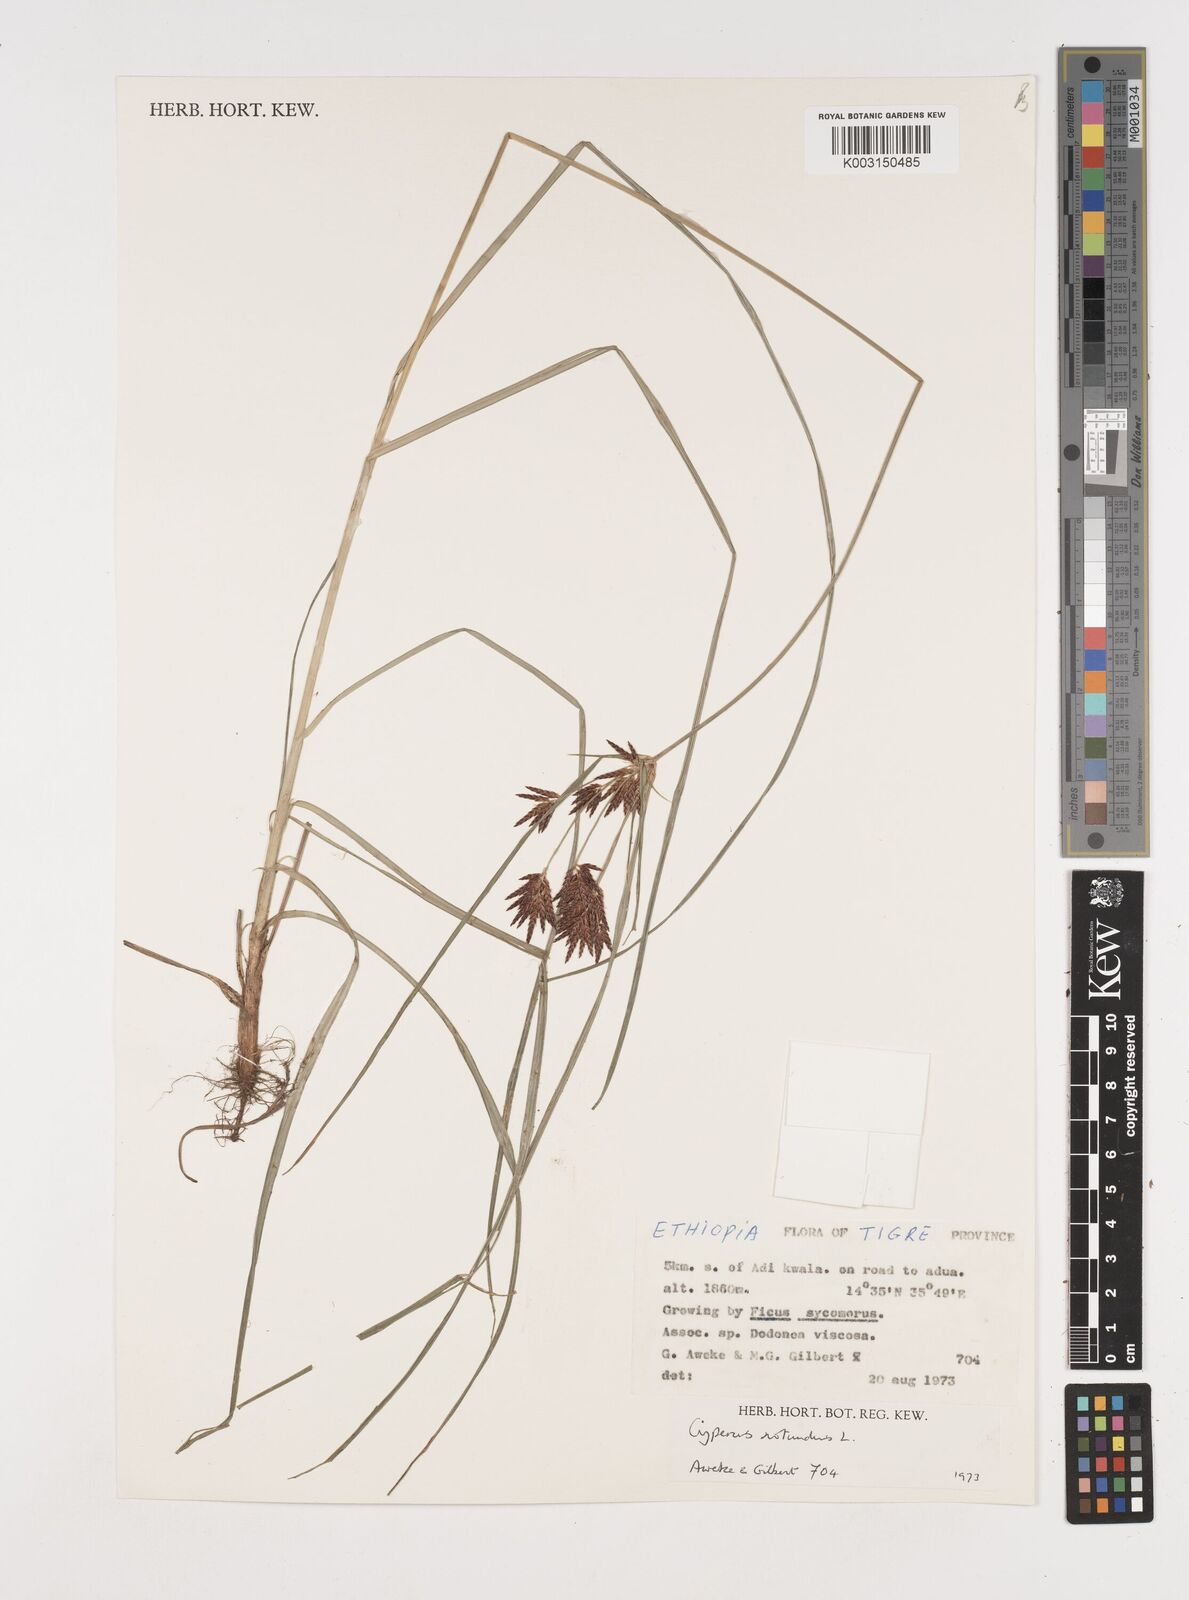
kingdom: Plantae
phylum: Tracheophyta
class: Liliopsida
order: Poales
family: Cyperaceae
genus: Cyperus
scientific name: Cyperus rotundus
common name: Nutgrass
